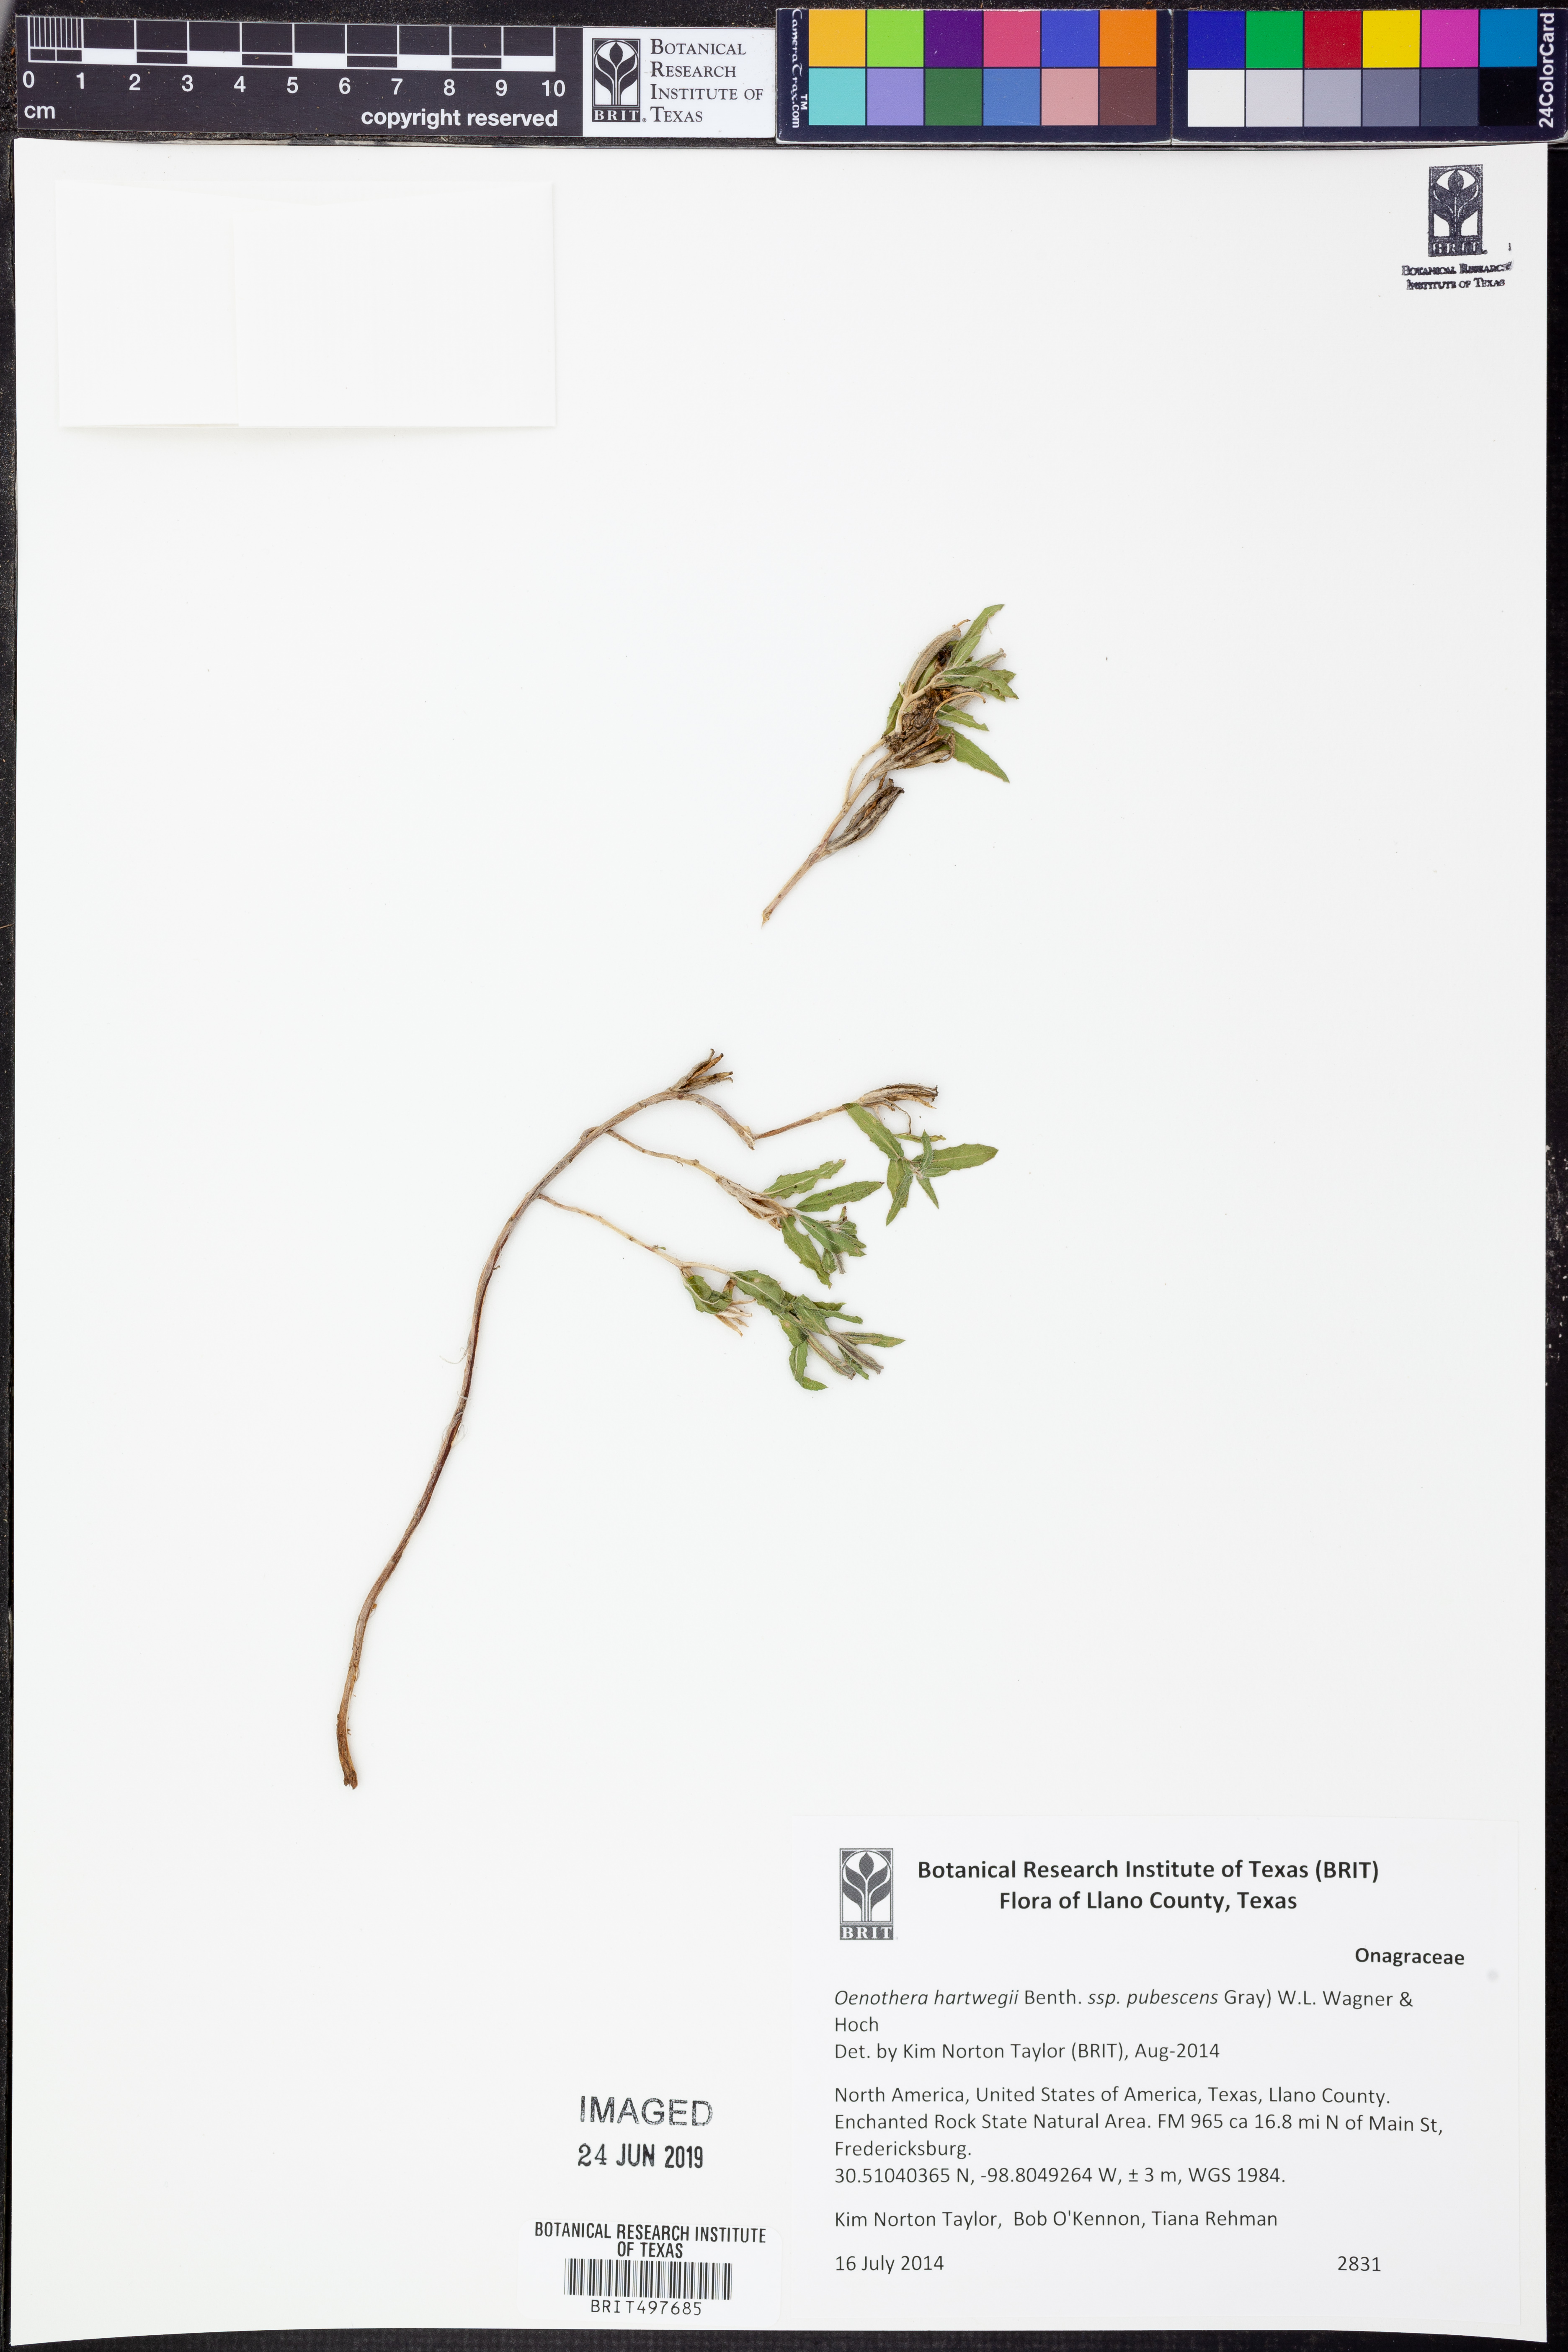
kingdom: Plantae
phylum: Tracheophyta
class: Magnoliopsida
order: Myrtales
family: Onagraceae
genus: Oenothera
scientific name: Oenothera hartwegii
